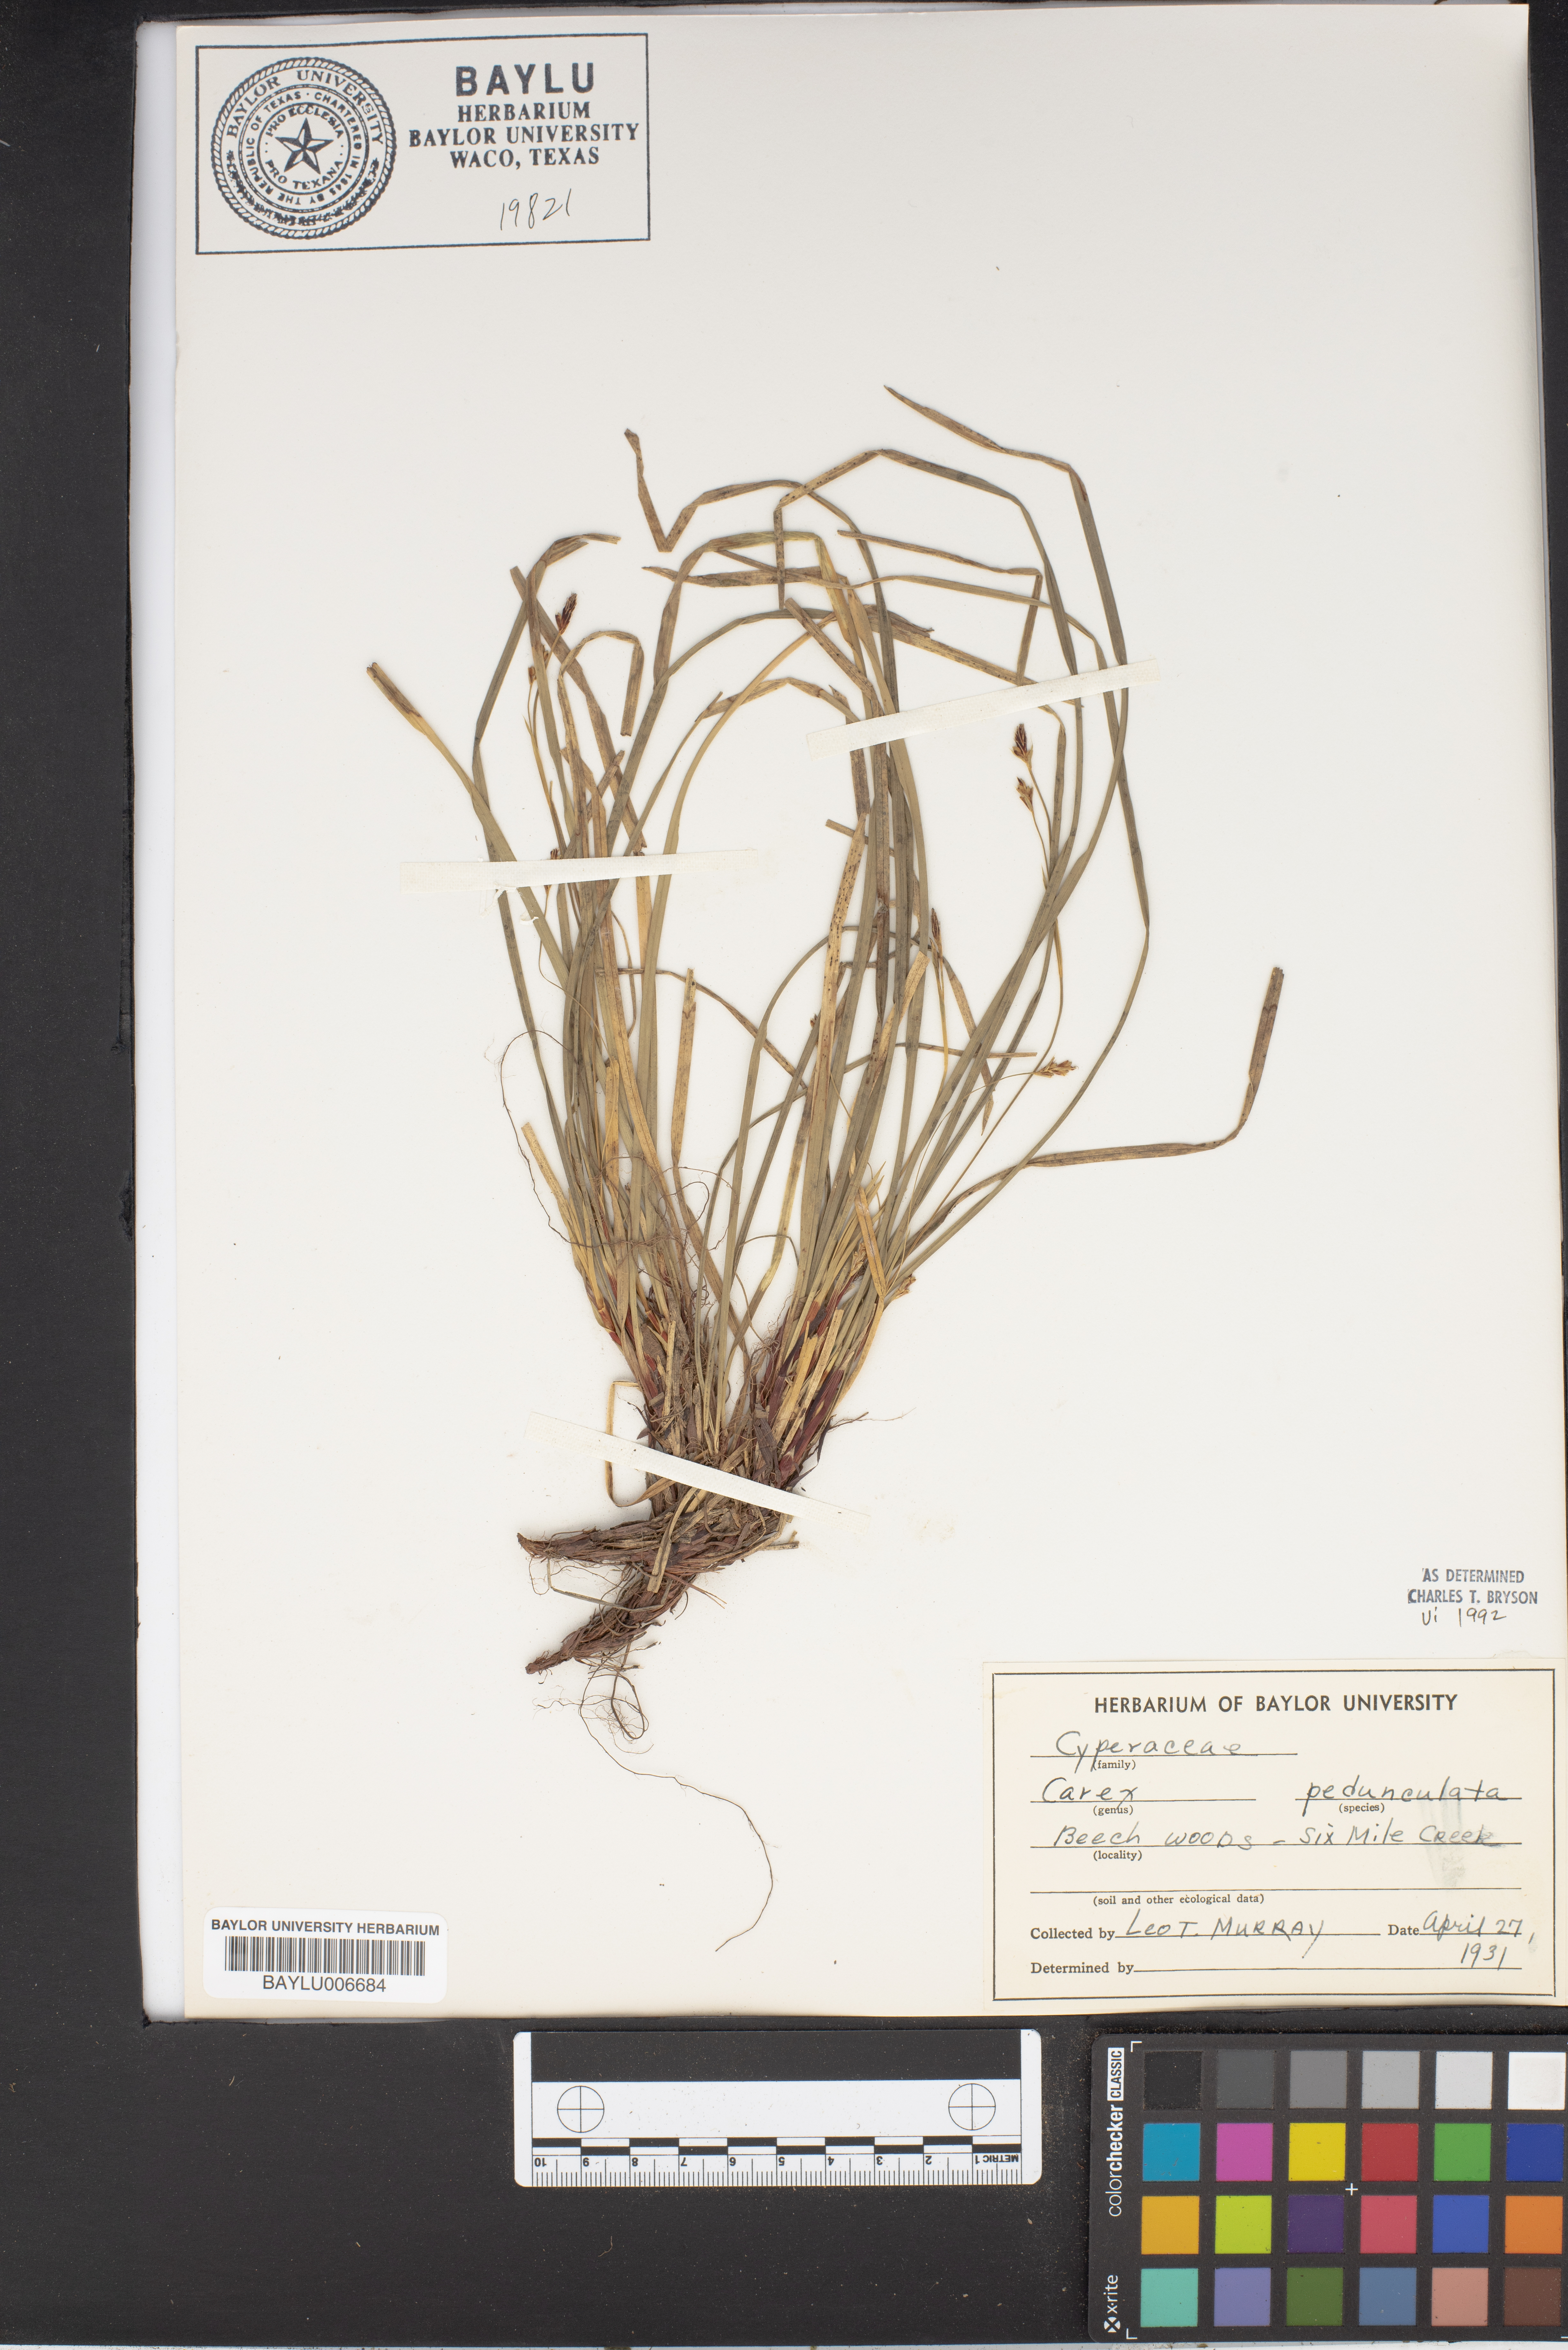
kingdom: Plantae
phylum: Tracheophyta
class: Liliopsida
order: Poales
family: Cyperaceae
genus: Carex
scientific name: Carex pedunculata
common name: Pedunculate sedge
